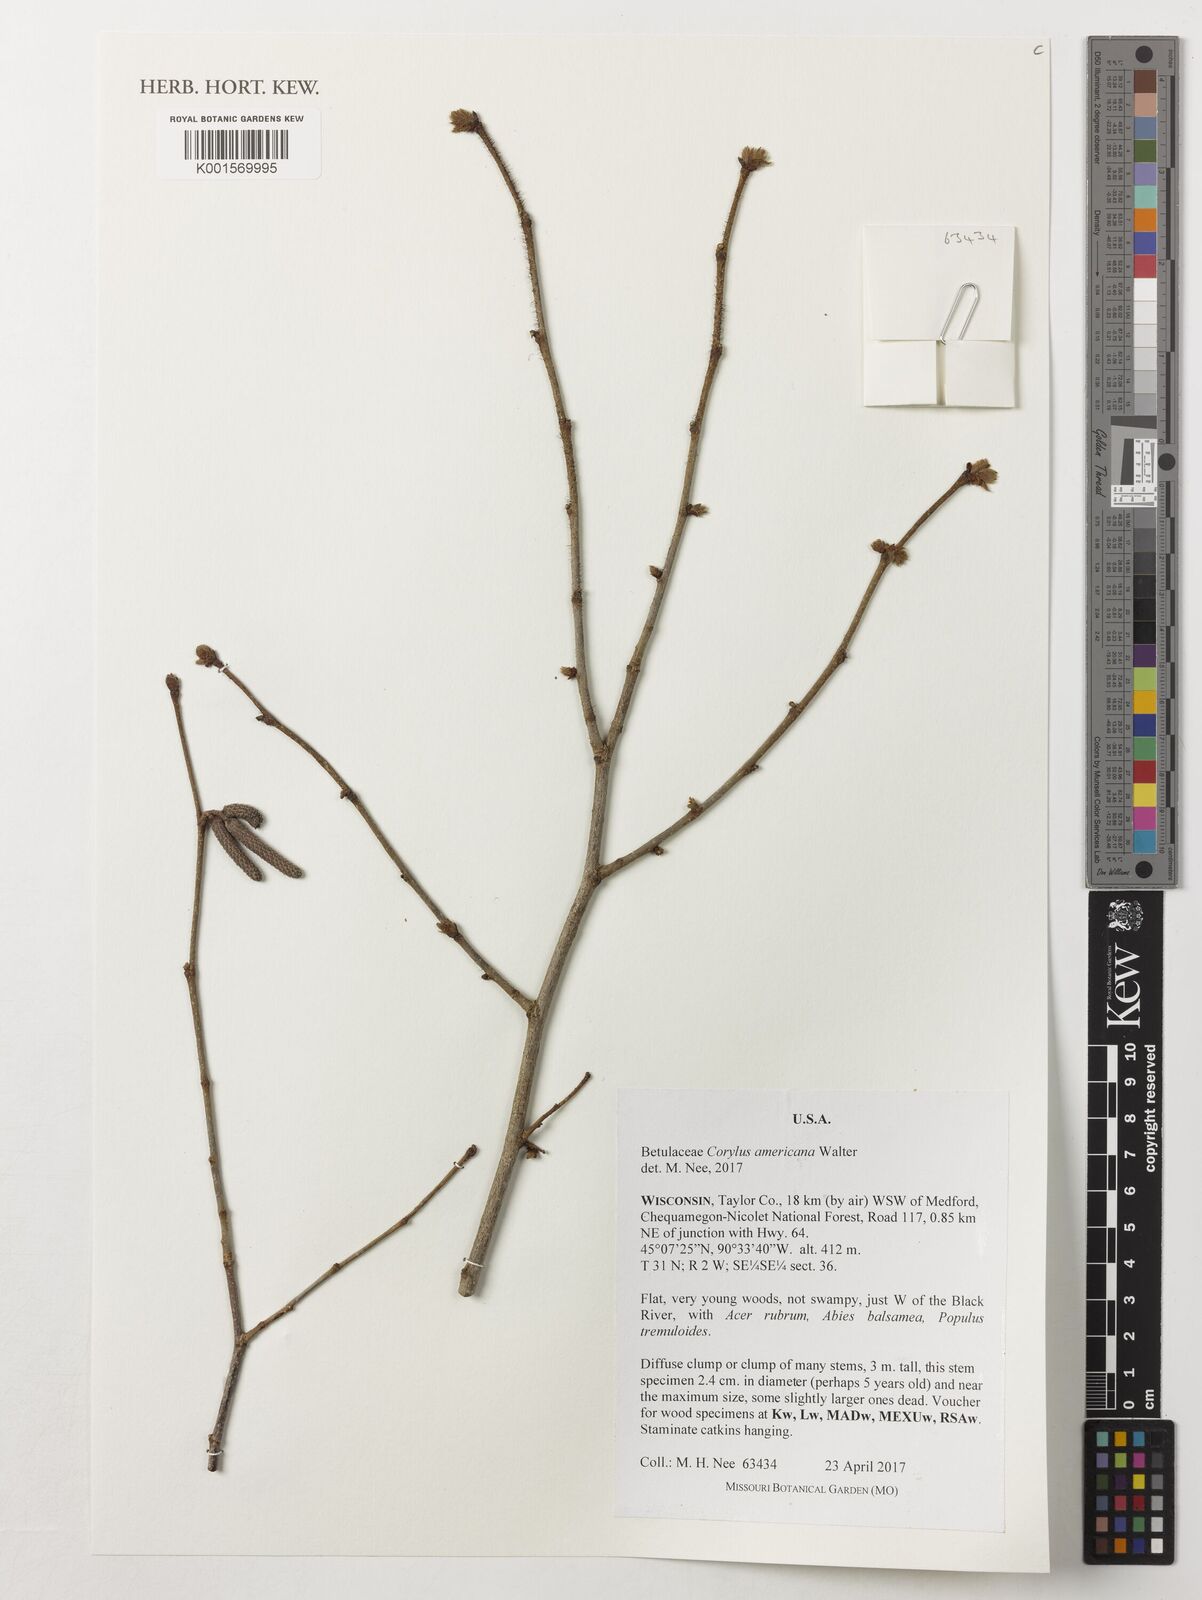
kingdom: Plantae
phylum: Tracheophyta
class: Magnoliopsida
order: Fagales
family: Betulaceae
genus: Corylus
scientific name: Corylus americana
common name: American hazel
